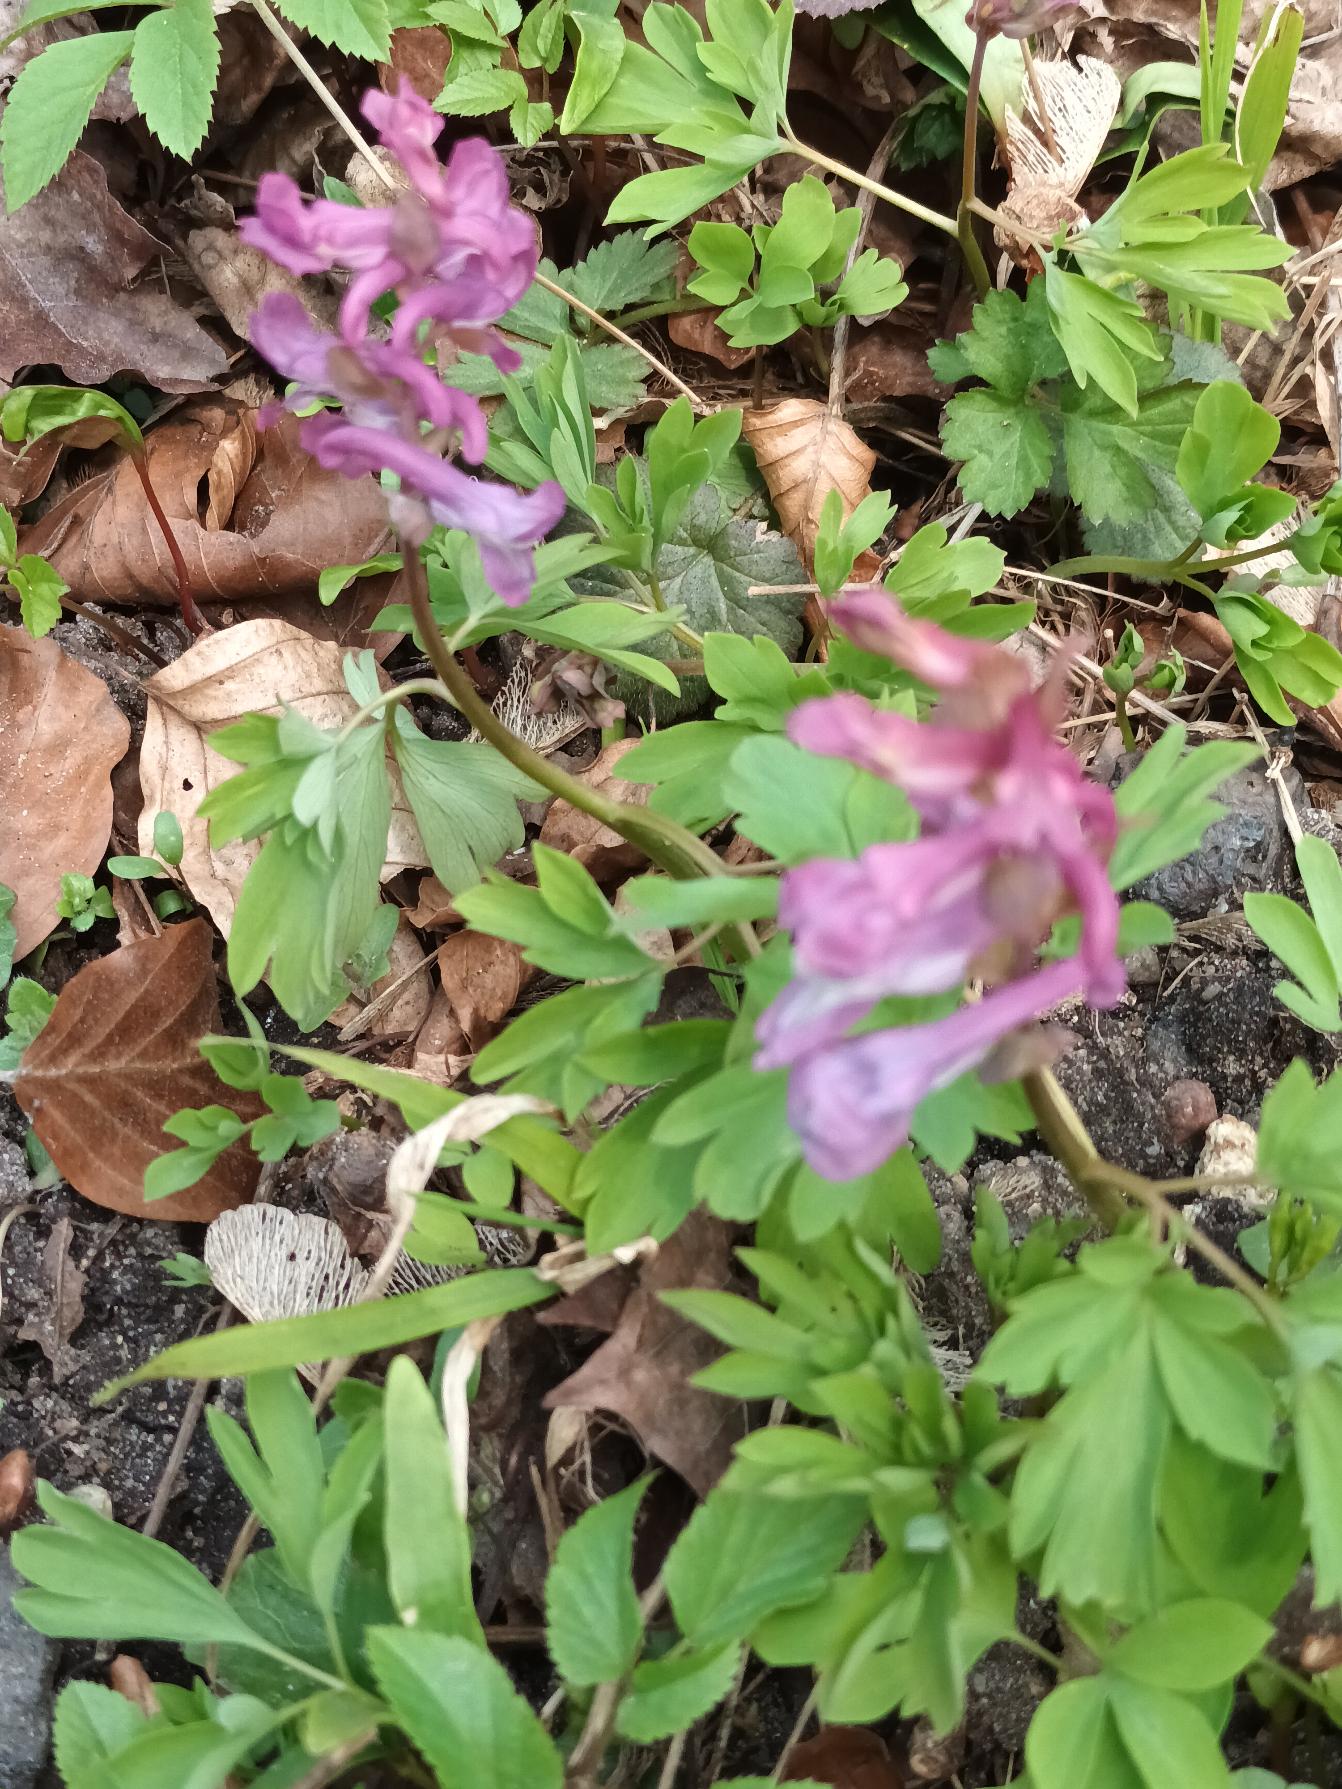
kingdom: Plantae
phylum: Tracheophyta
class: Magnoliopsida
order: Ranunculales
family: Papaveraceae
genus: Corydalis
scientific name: Corydalis cava
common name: Hulrodet lærkespore
